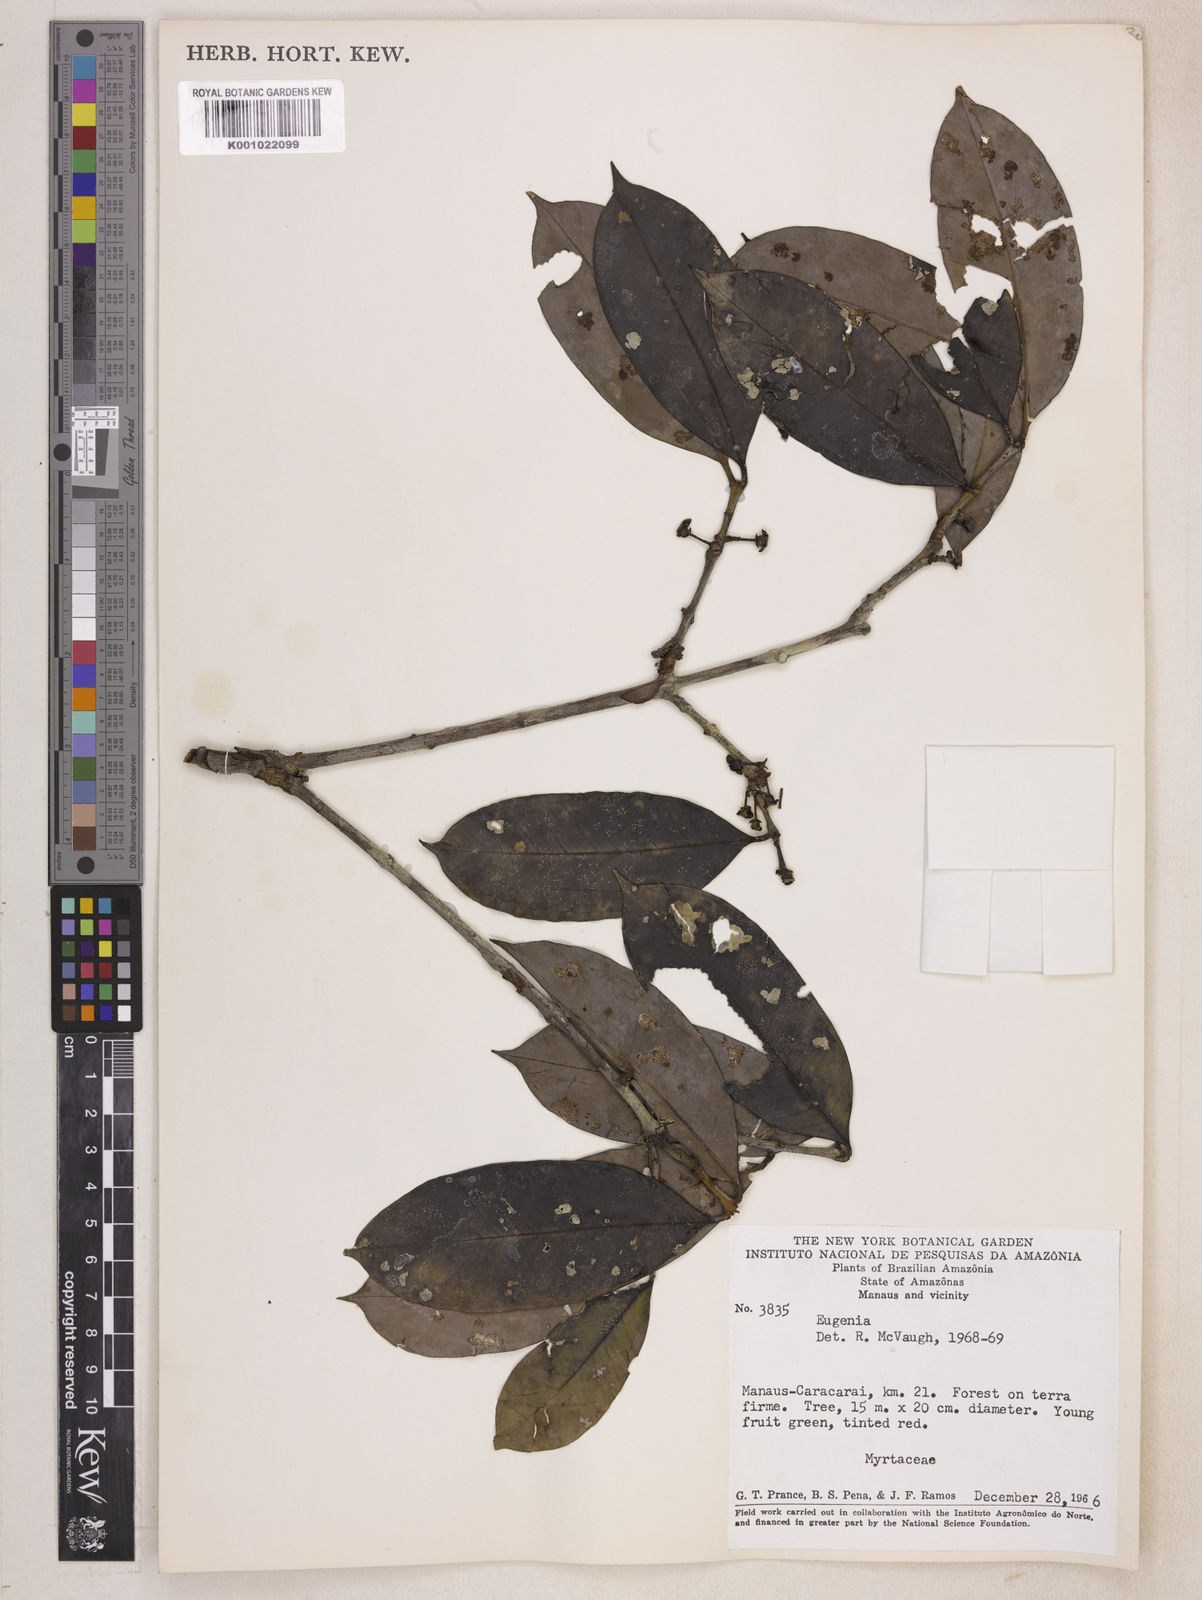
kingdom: Plantae
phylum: Tracheophyta
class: Magnoliopsida
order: Myrtales
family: Myrtaceae
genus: Eugenia
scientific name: Eugenia caducipetala
